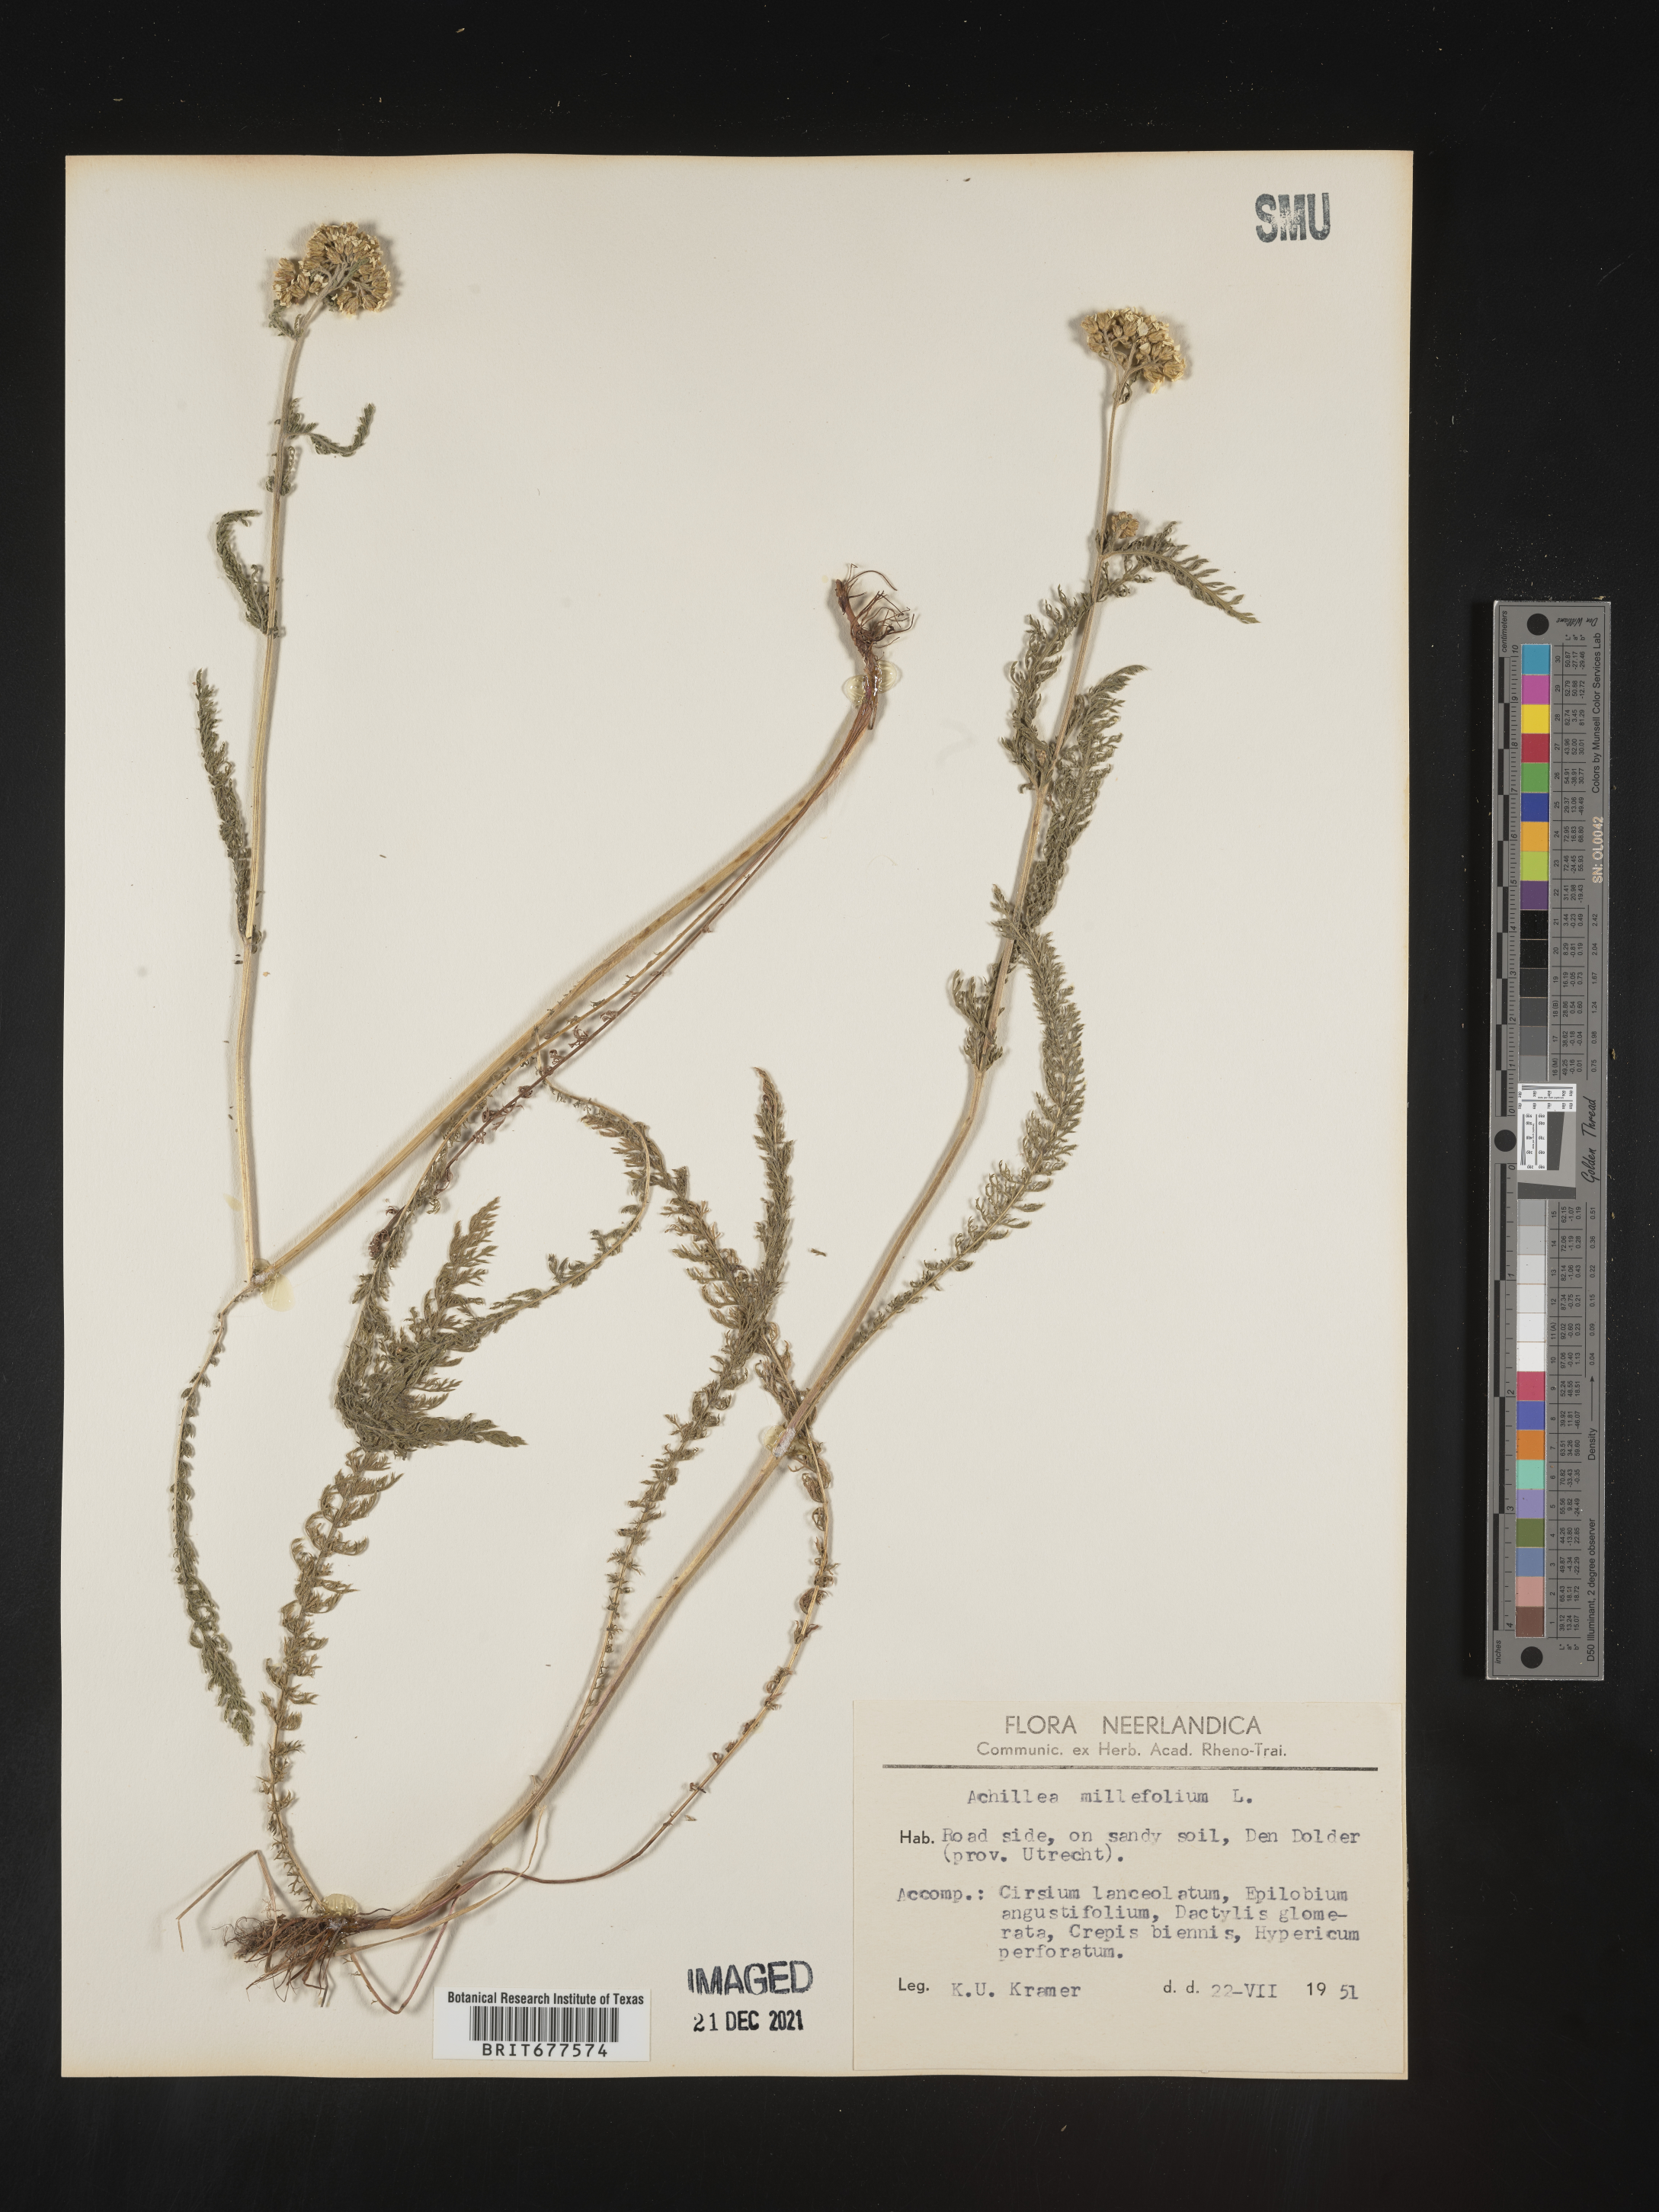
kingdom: Plantae
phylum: Tracheophyta
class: Magnoliopsida
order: Asterales
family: Asteraceae
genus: Achillea
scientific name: Achillea millefolium
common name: Yarrow
